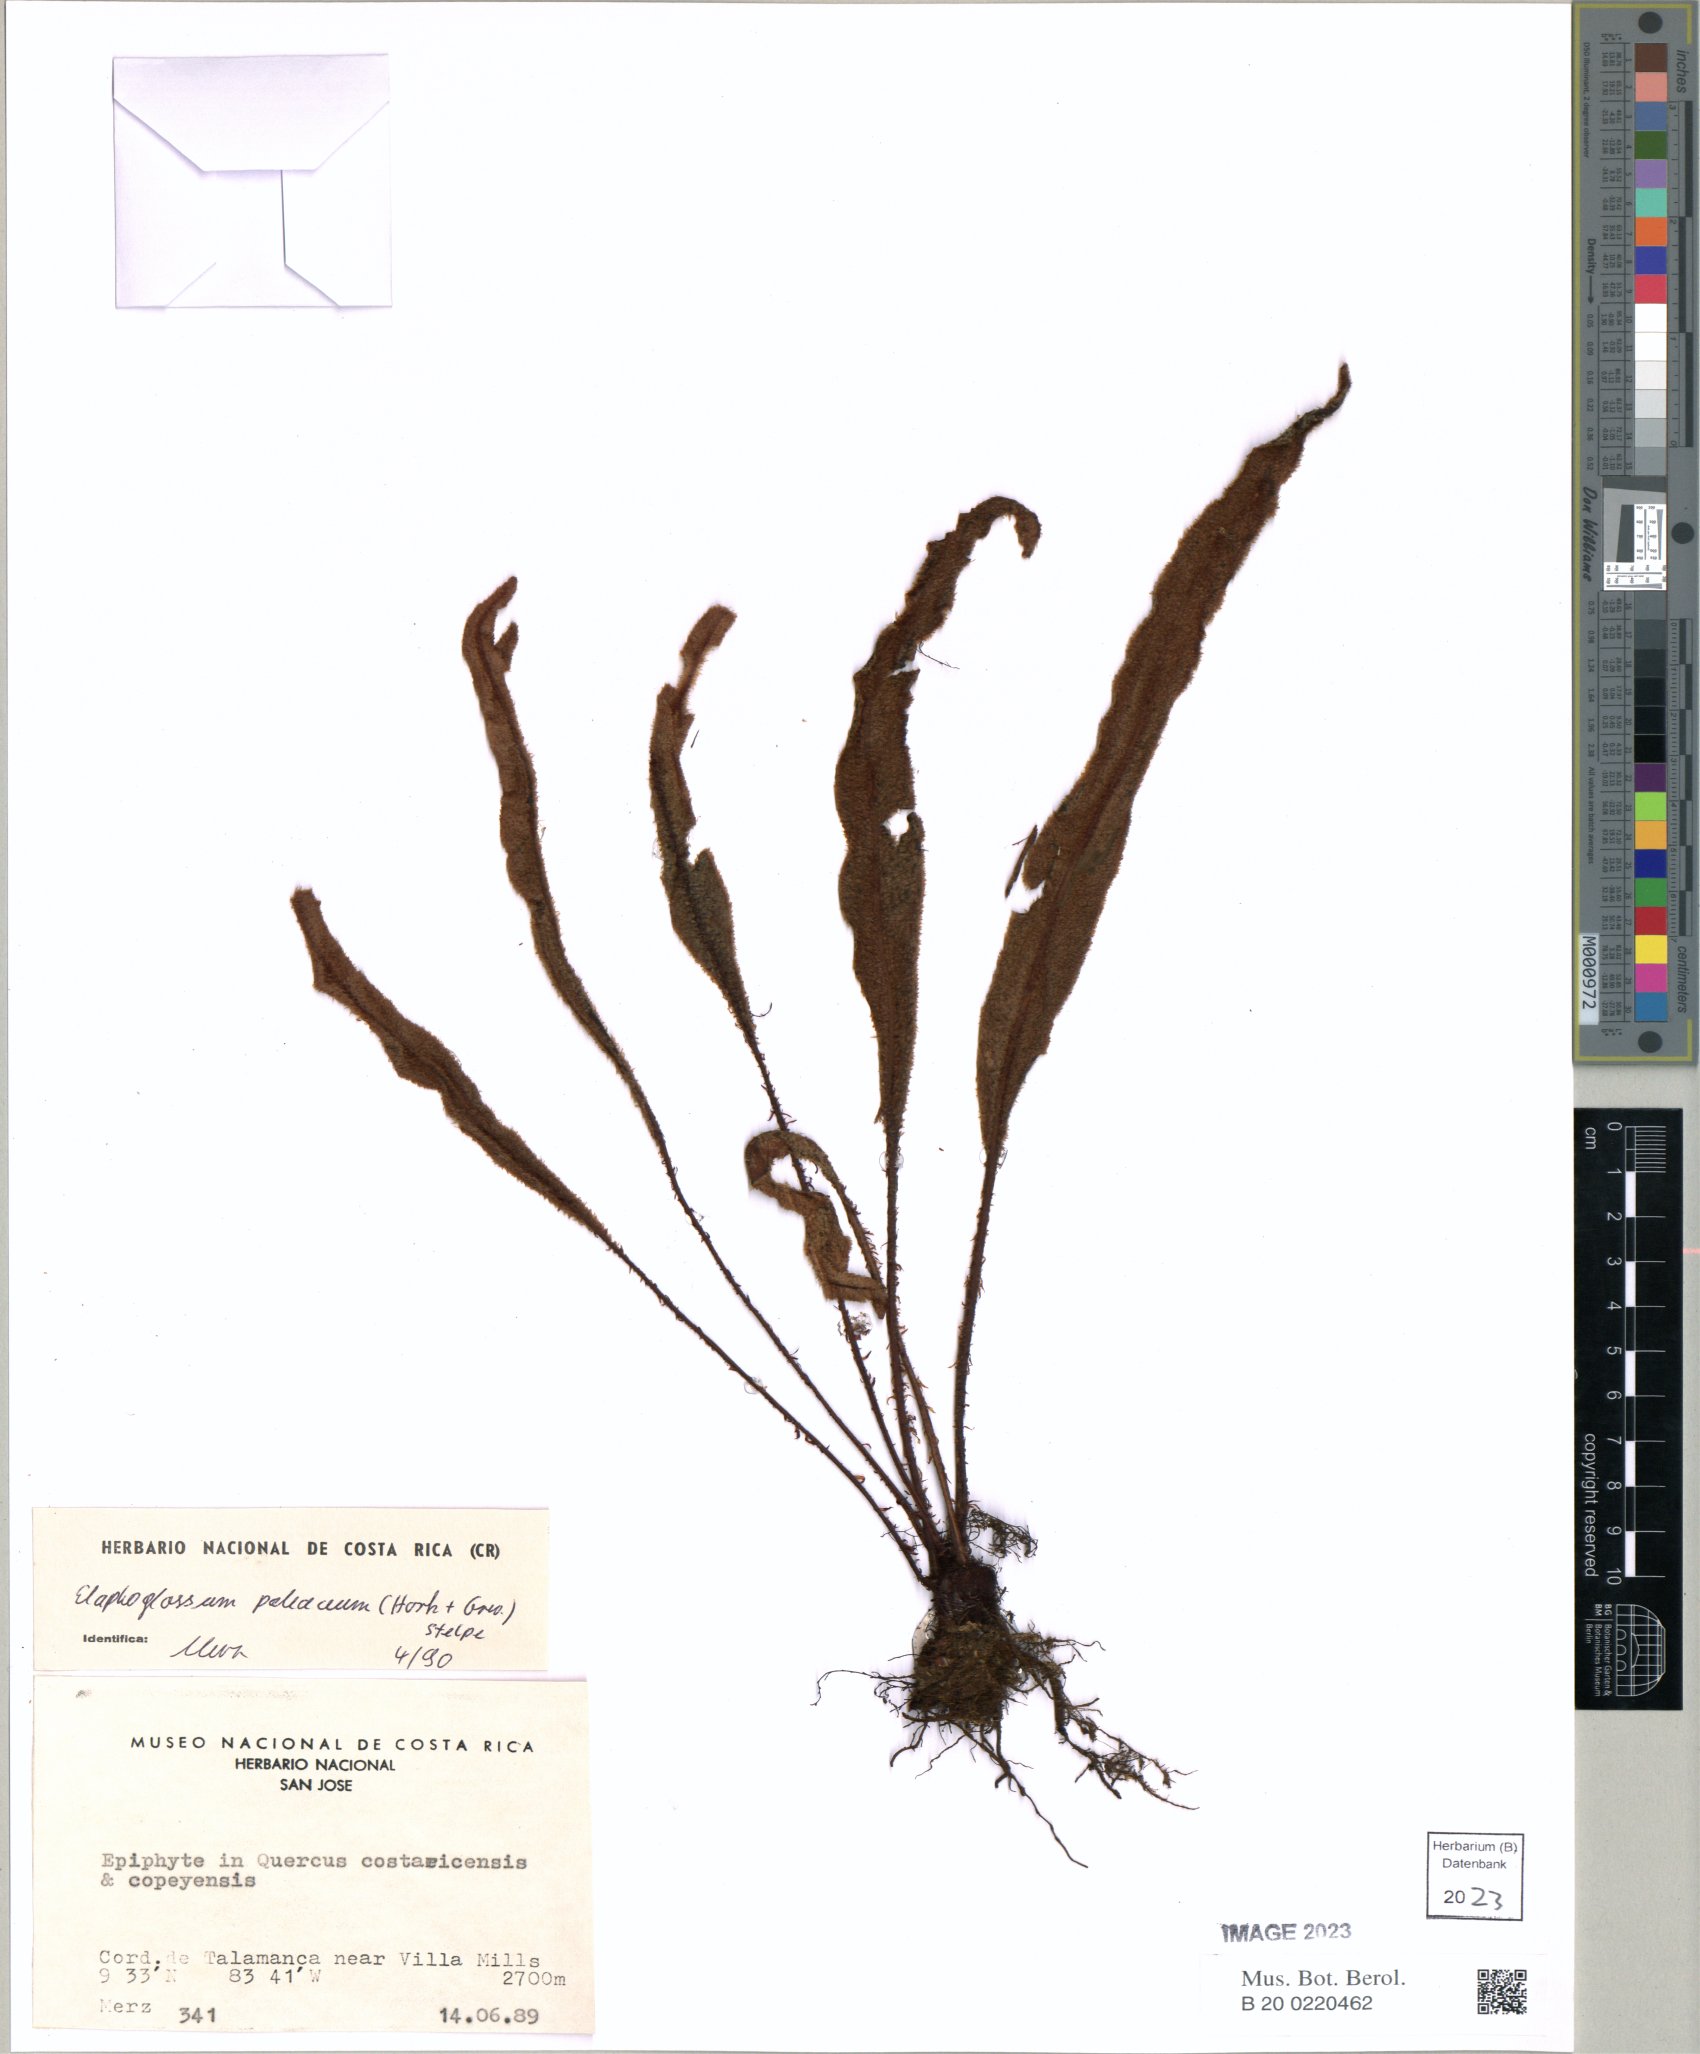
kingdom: Plantae
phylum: Tracheophyta
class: Polypodiopsida
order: Polypodiales
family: Dryopteridaceae
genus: Elaphoglossum
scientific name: Elaphoglossum paleaceum
